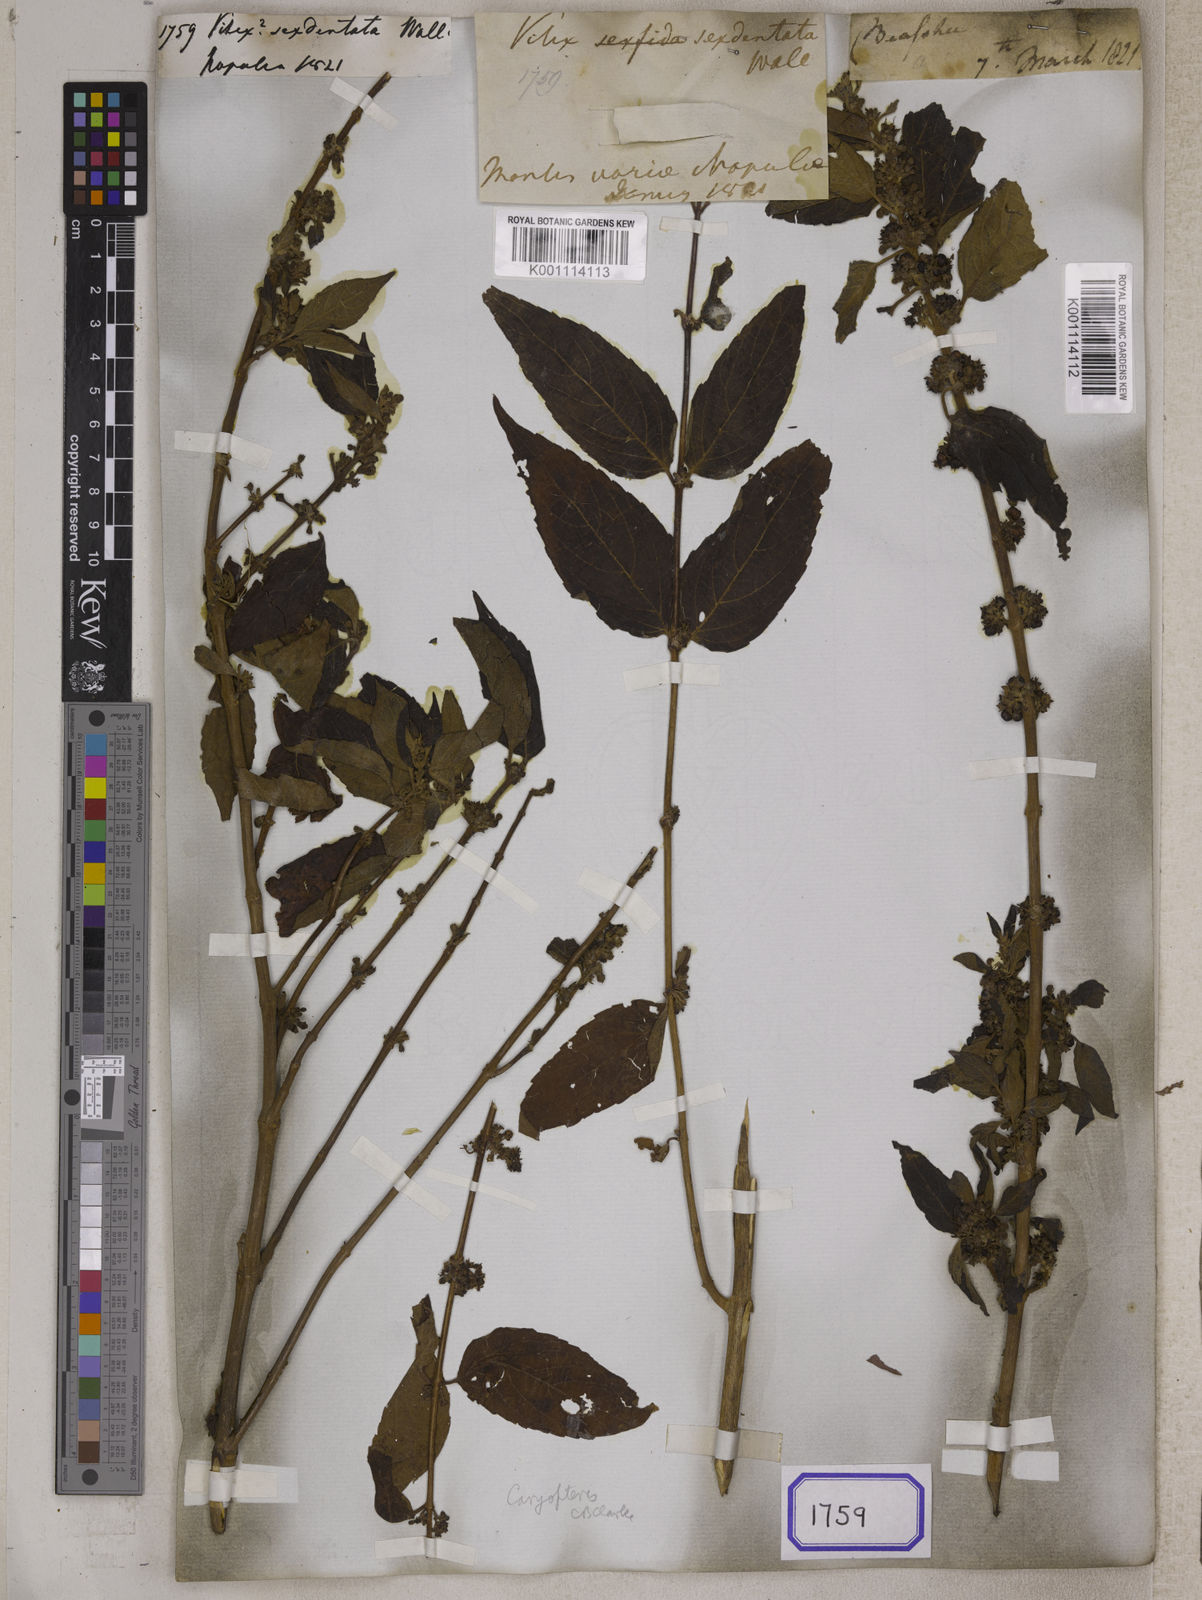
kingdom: Plantae
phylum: Tracheophyta
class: Magnoliopsida
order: Lamiales
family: Lamiaceae
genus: Vitex
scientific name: Vitex
